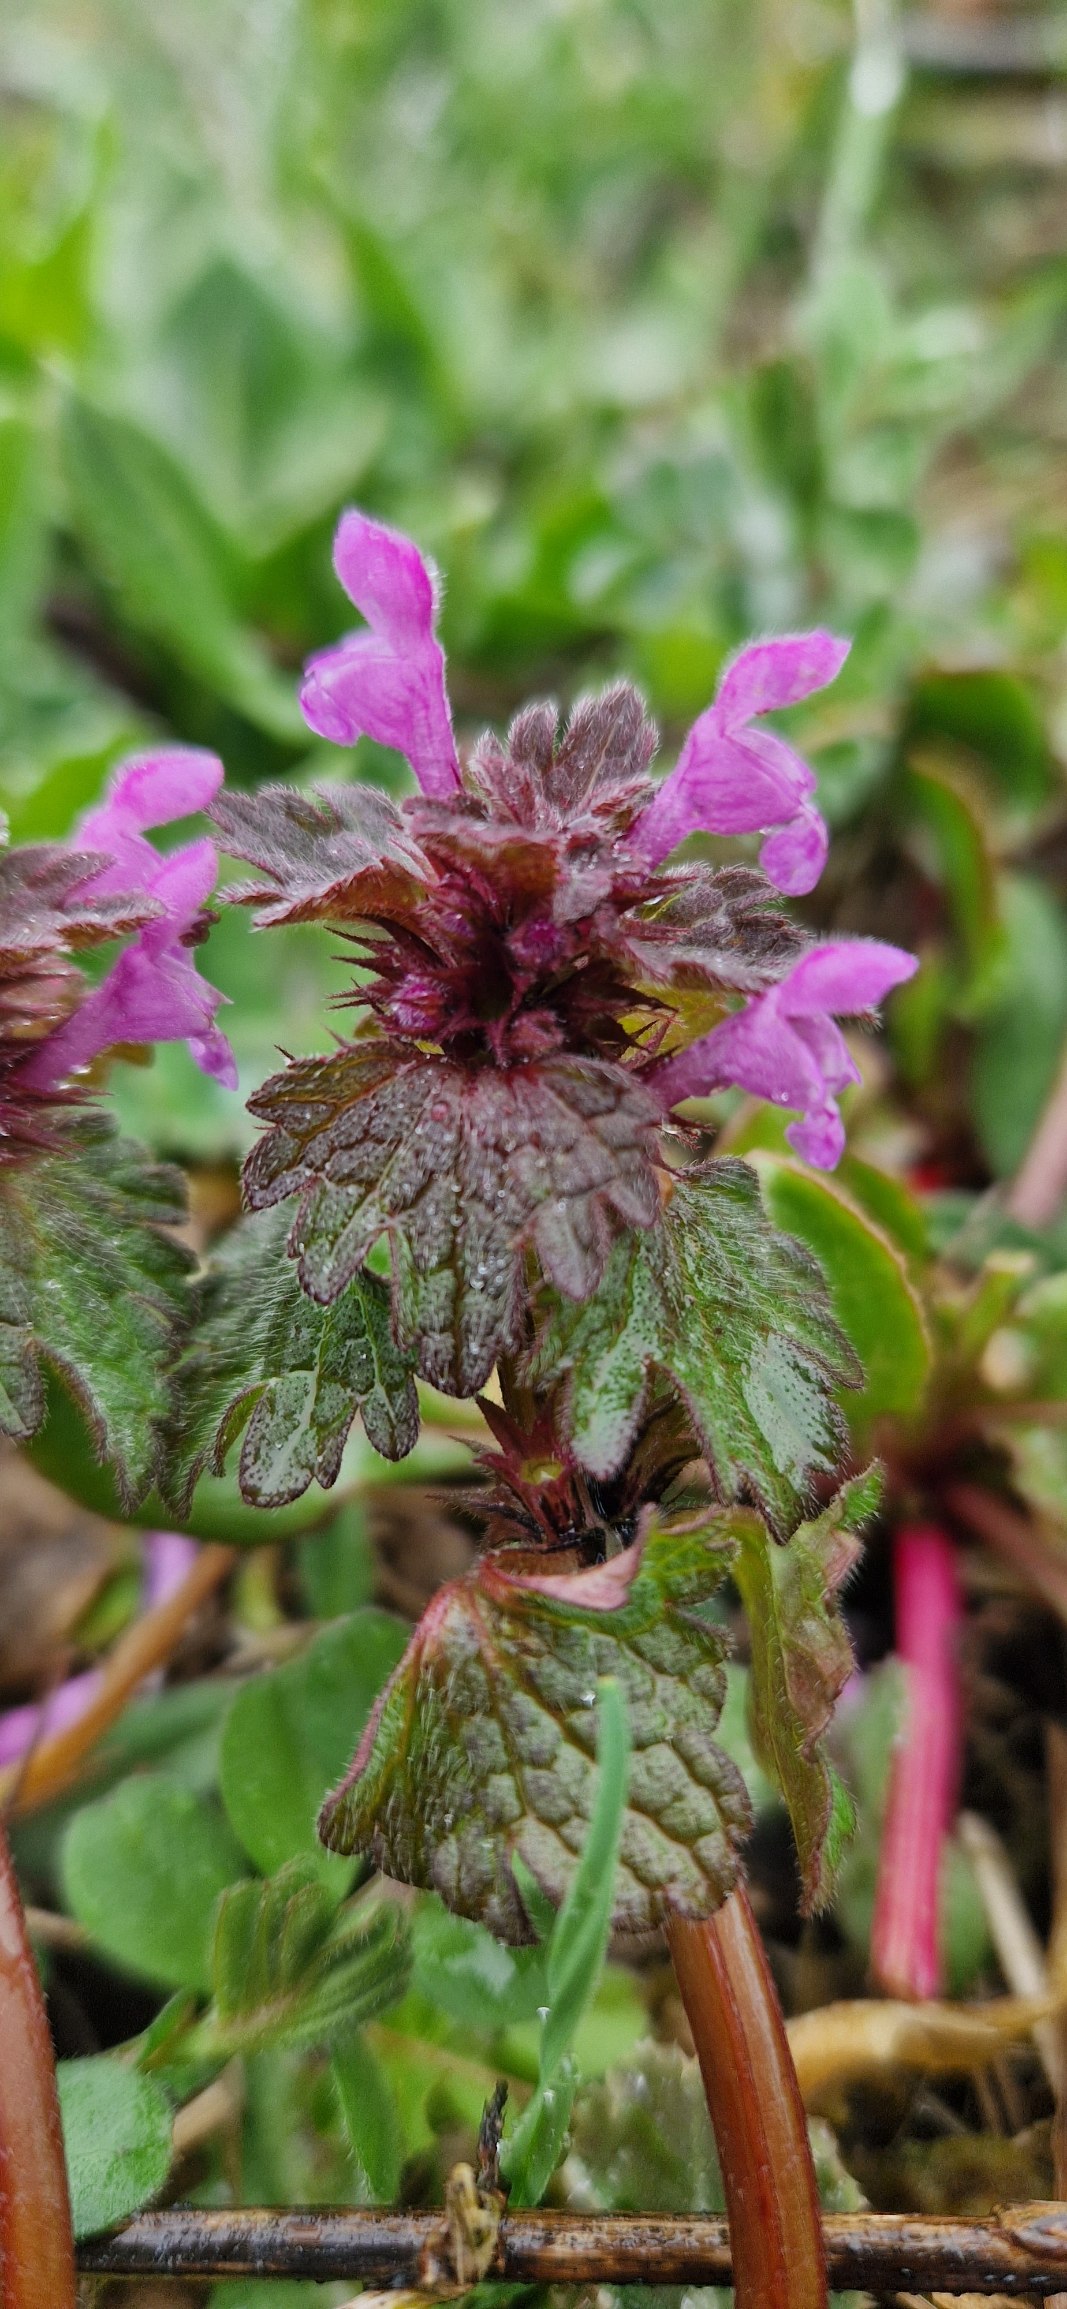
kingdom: Plantae
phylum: Tracheophyta
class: Magnoliopsida
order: Lamiales
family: Lamiaceae
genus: Lamium
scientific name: Lamium hybridum
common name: Fliget tvetand
